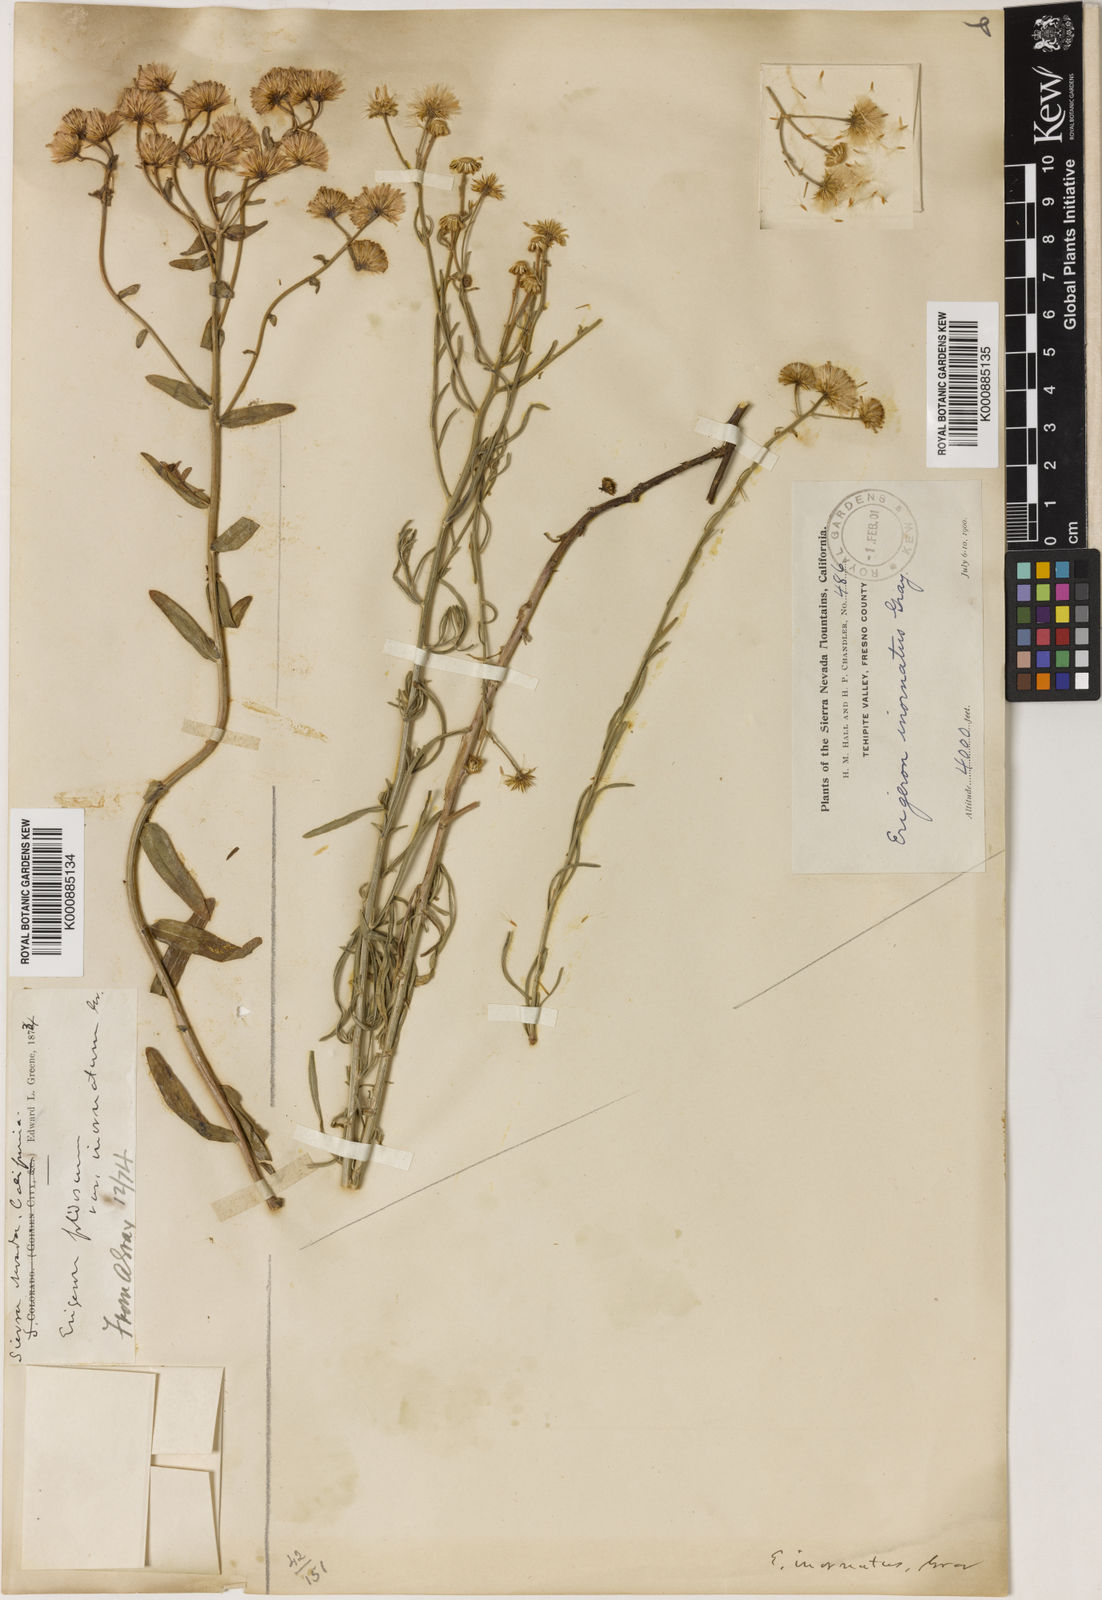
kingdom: Plantae
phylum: Tracheophyta
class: Magnoliopsida
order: Asterales
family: Asteraceae
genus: Erigeron
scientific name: Erigeron
